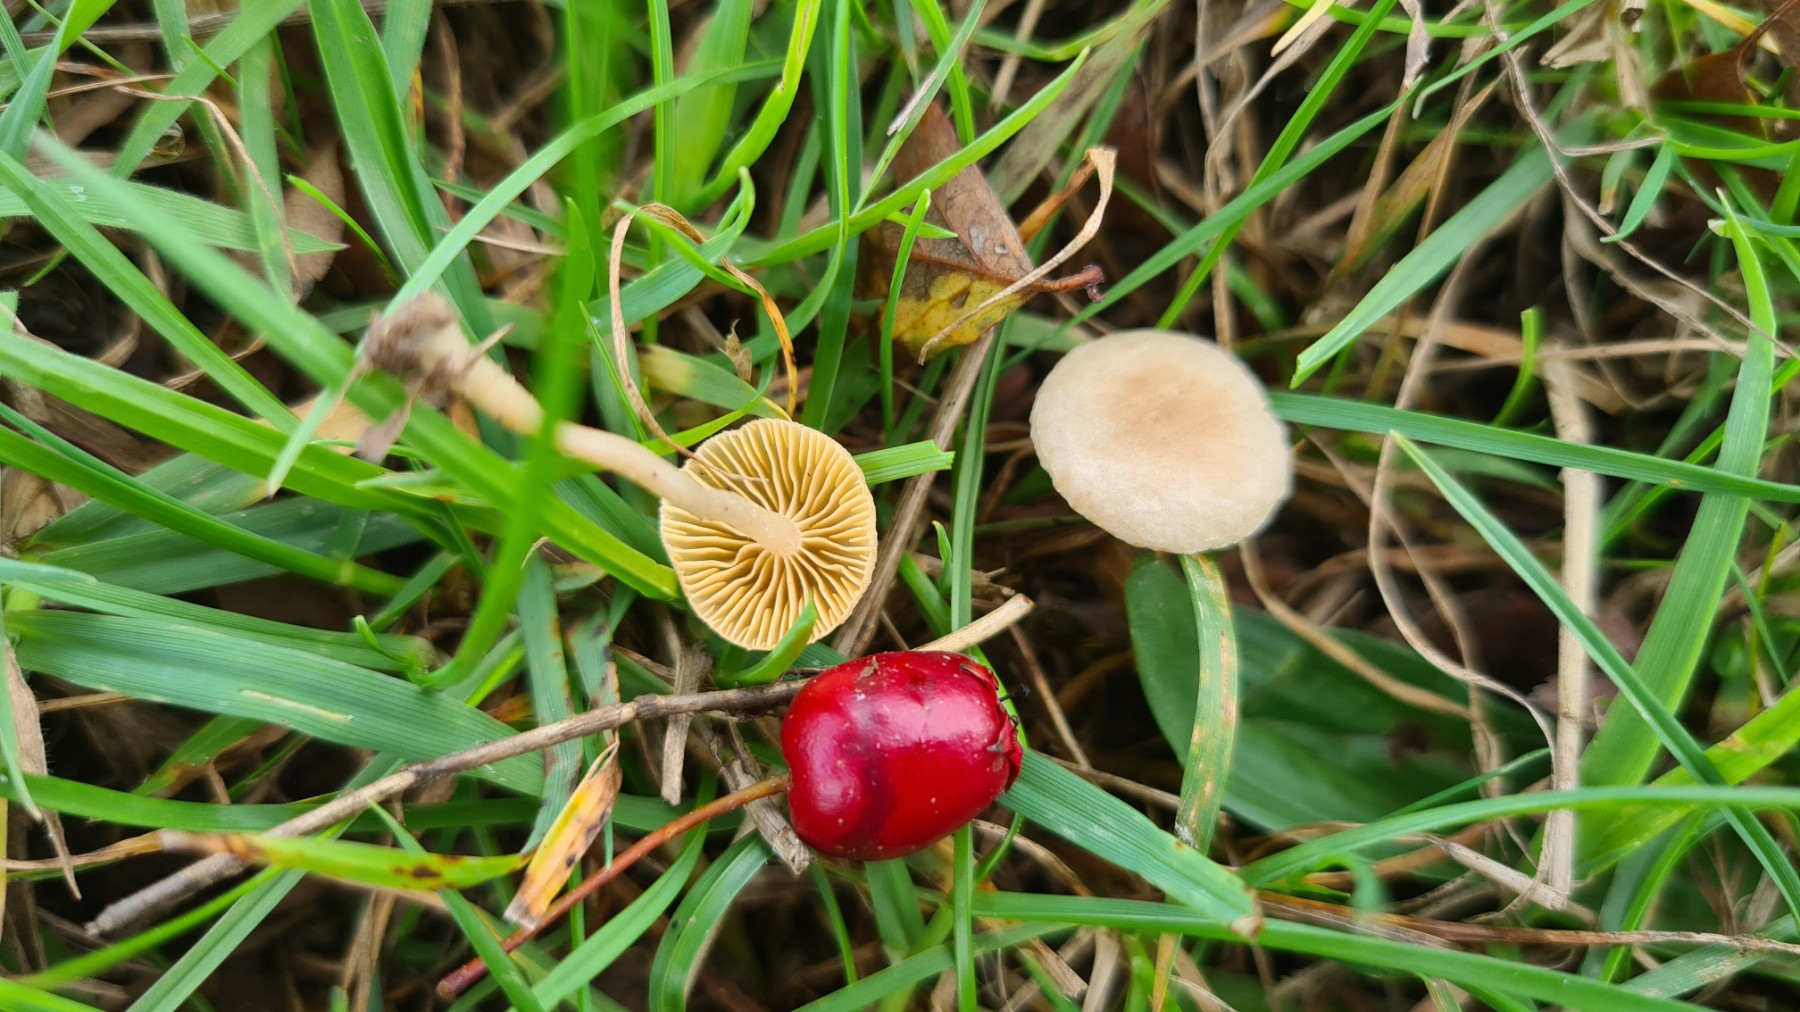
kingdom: Fungi
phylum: Basidiomycota
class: Agaricomycetes
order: Agaricales
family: Tubariaceae
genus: Tubaria
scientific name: Tubaria dispersa
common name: tjørne-fnughat
